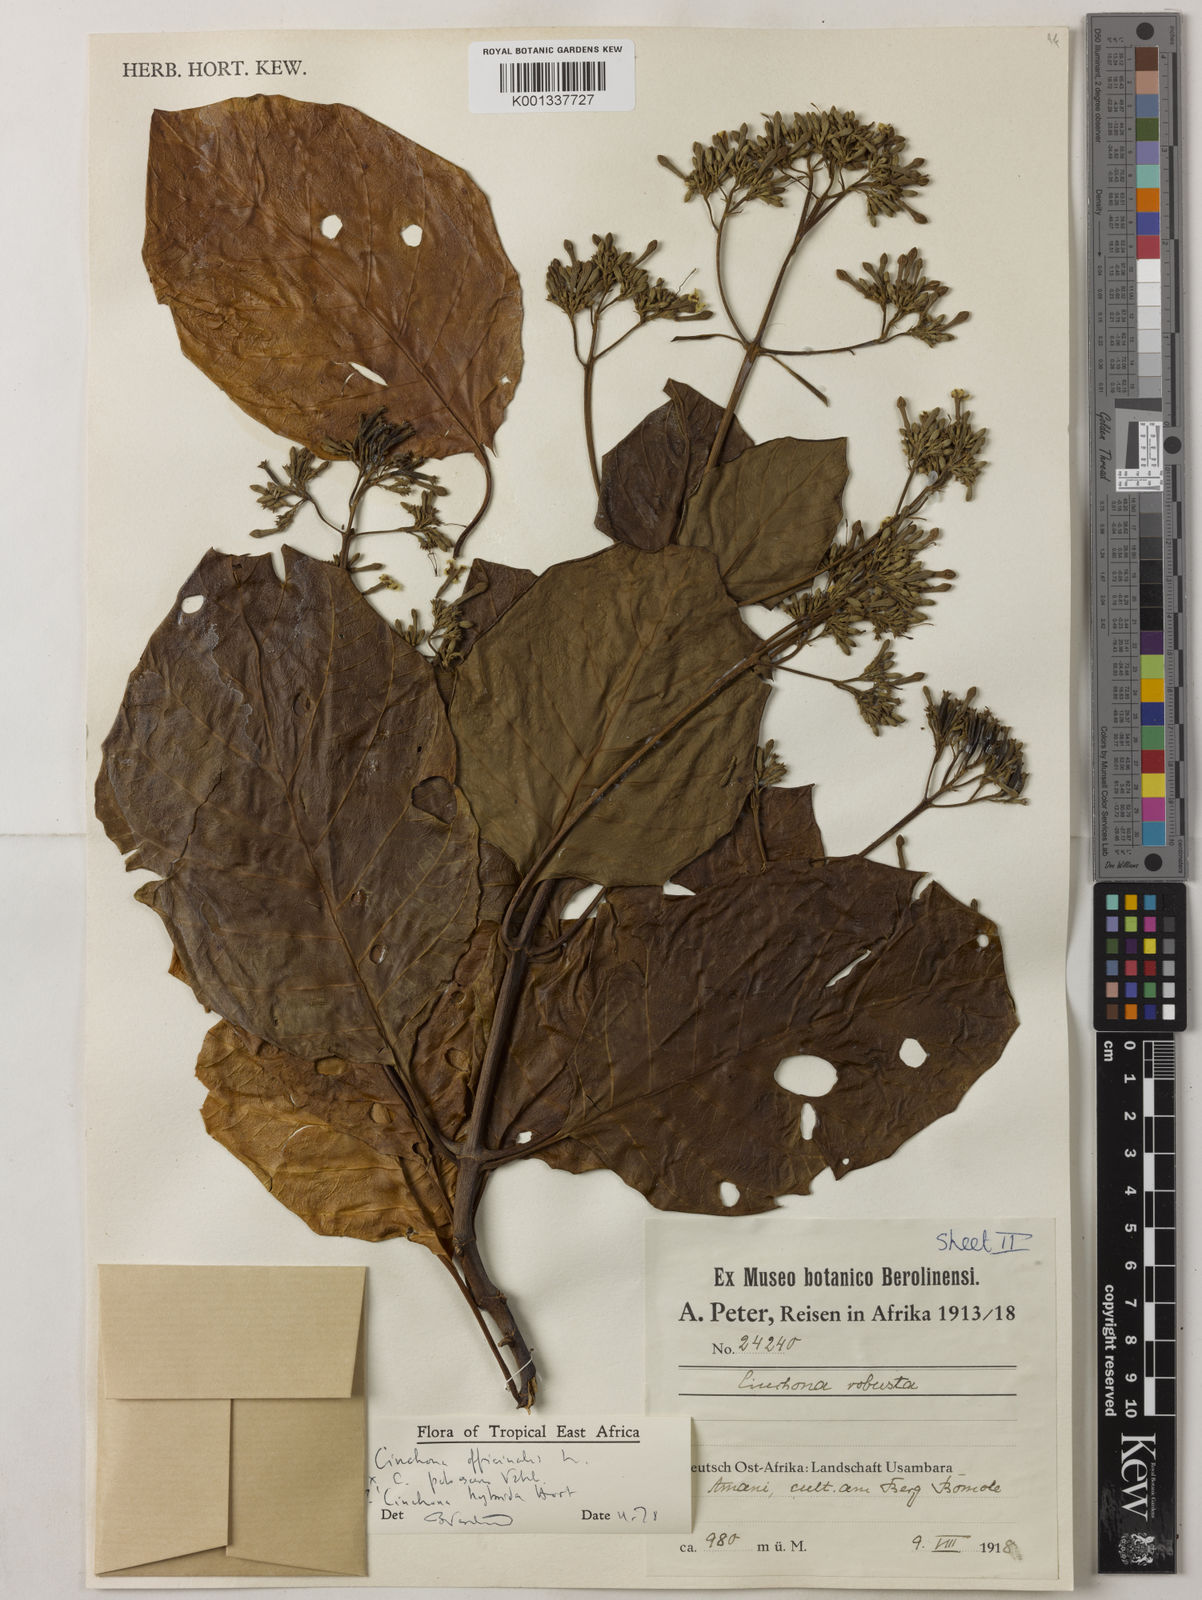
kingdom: Plantae
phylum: Tracheophyta
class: Magnoliopsida
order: Gentianales
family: Rubiaceae
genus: Cinchona
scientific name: Cinchona
